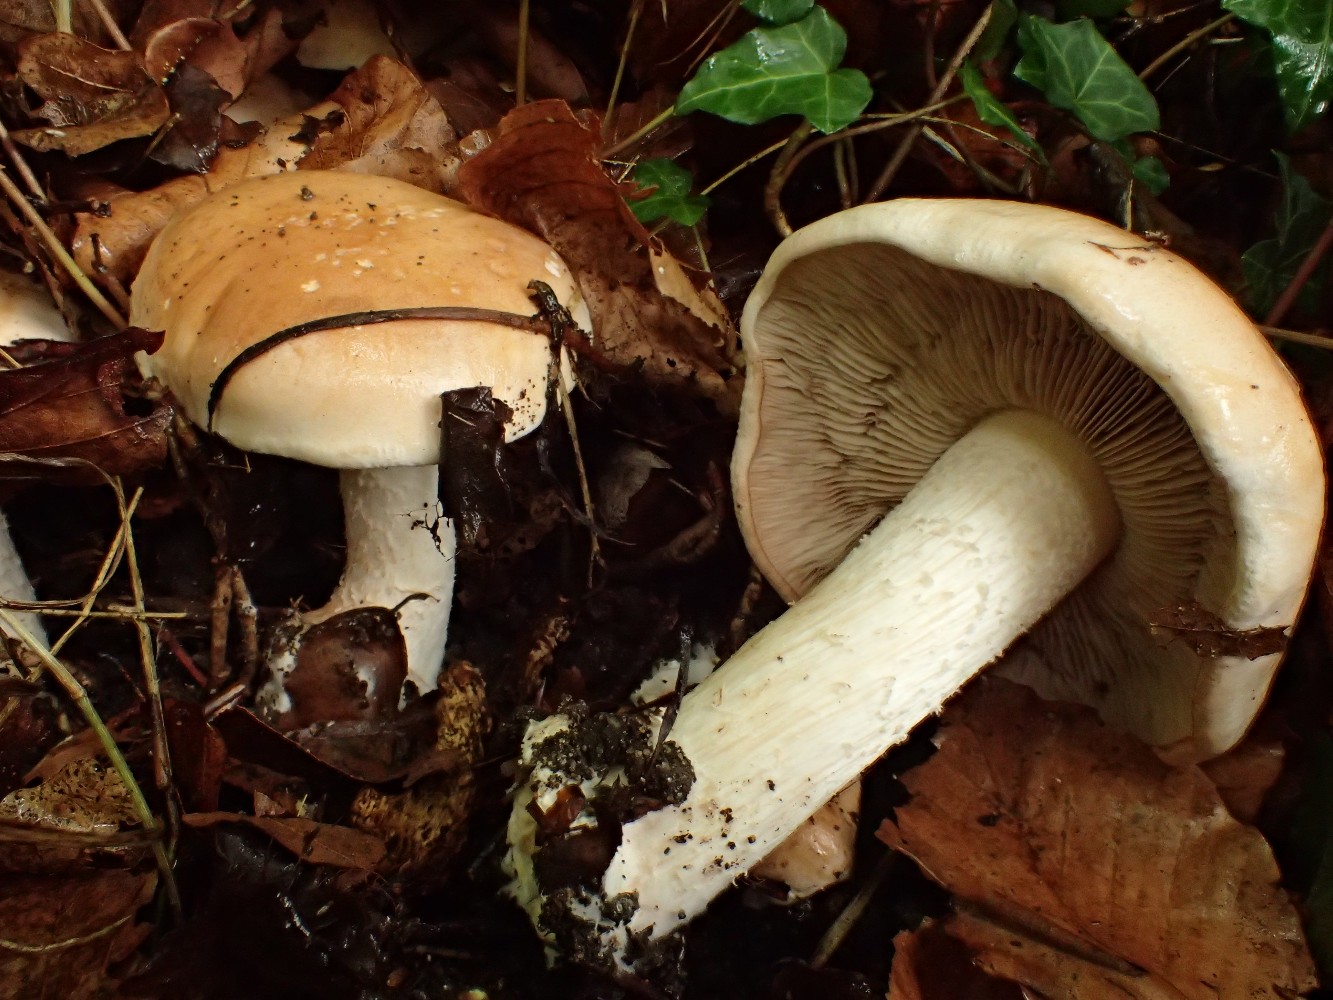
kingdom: Fungi
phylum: Basidiomycota
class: Agaricomycetes
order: Agaricales
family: Hymenogastraceae
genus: Hebeloma
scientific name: Hebeloma sinapizans
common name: ræddike-tåreblad
